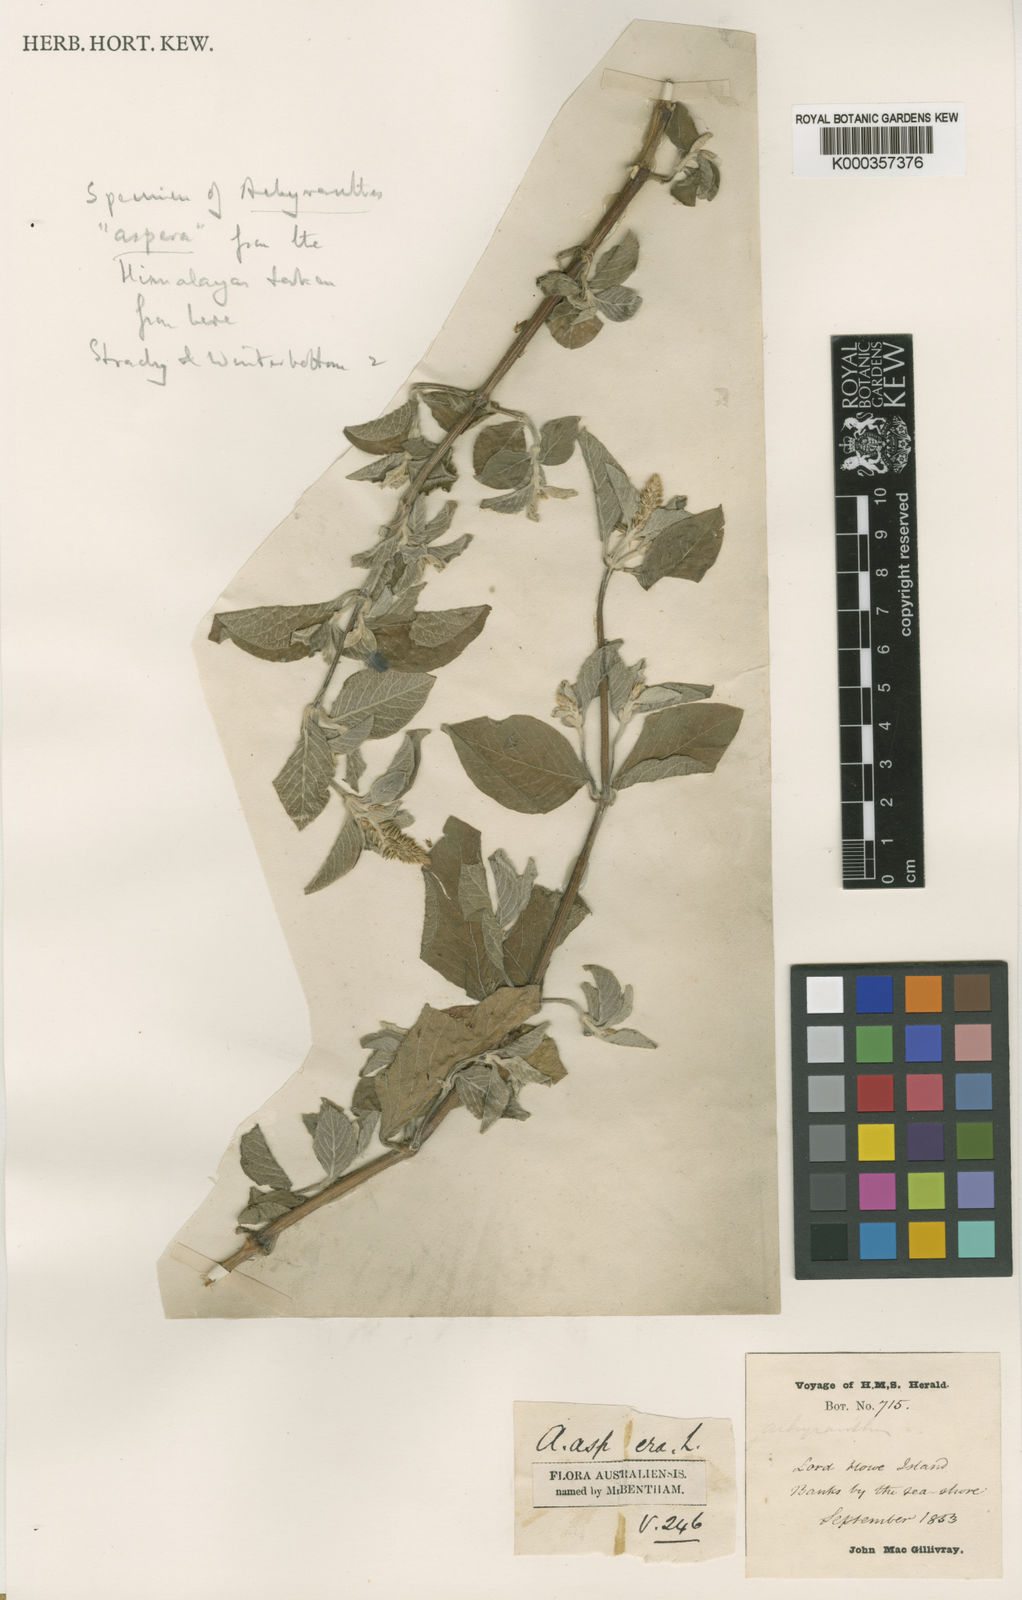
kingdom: Plantae
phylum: Tracheophyta
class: Magnoliopsida
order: Caryophyllales
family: Amaranthaceae
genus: Achyranthes
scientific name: Achyranthes aspera
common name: Devil's horsewhip
